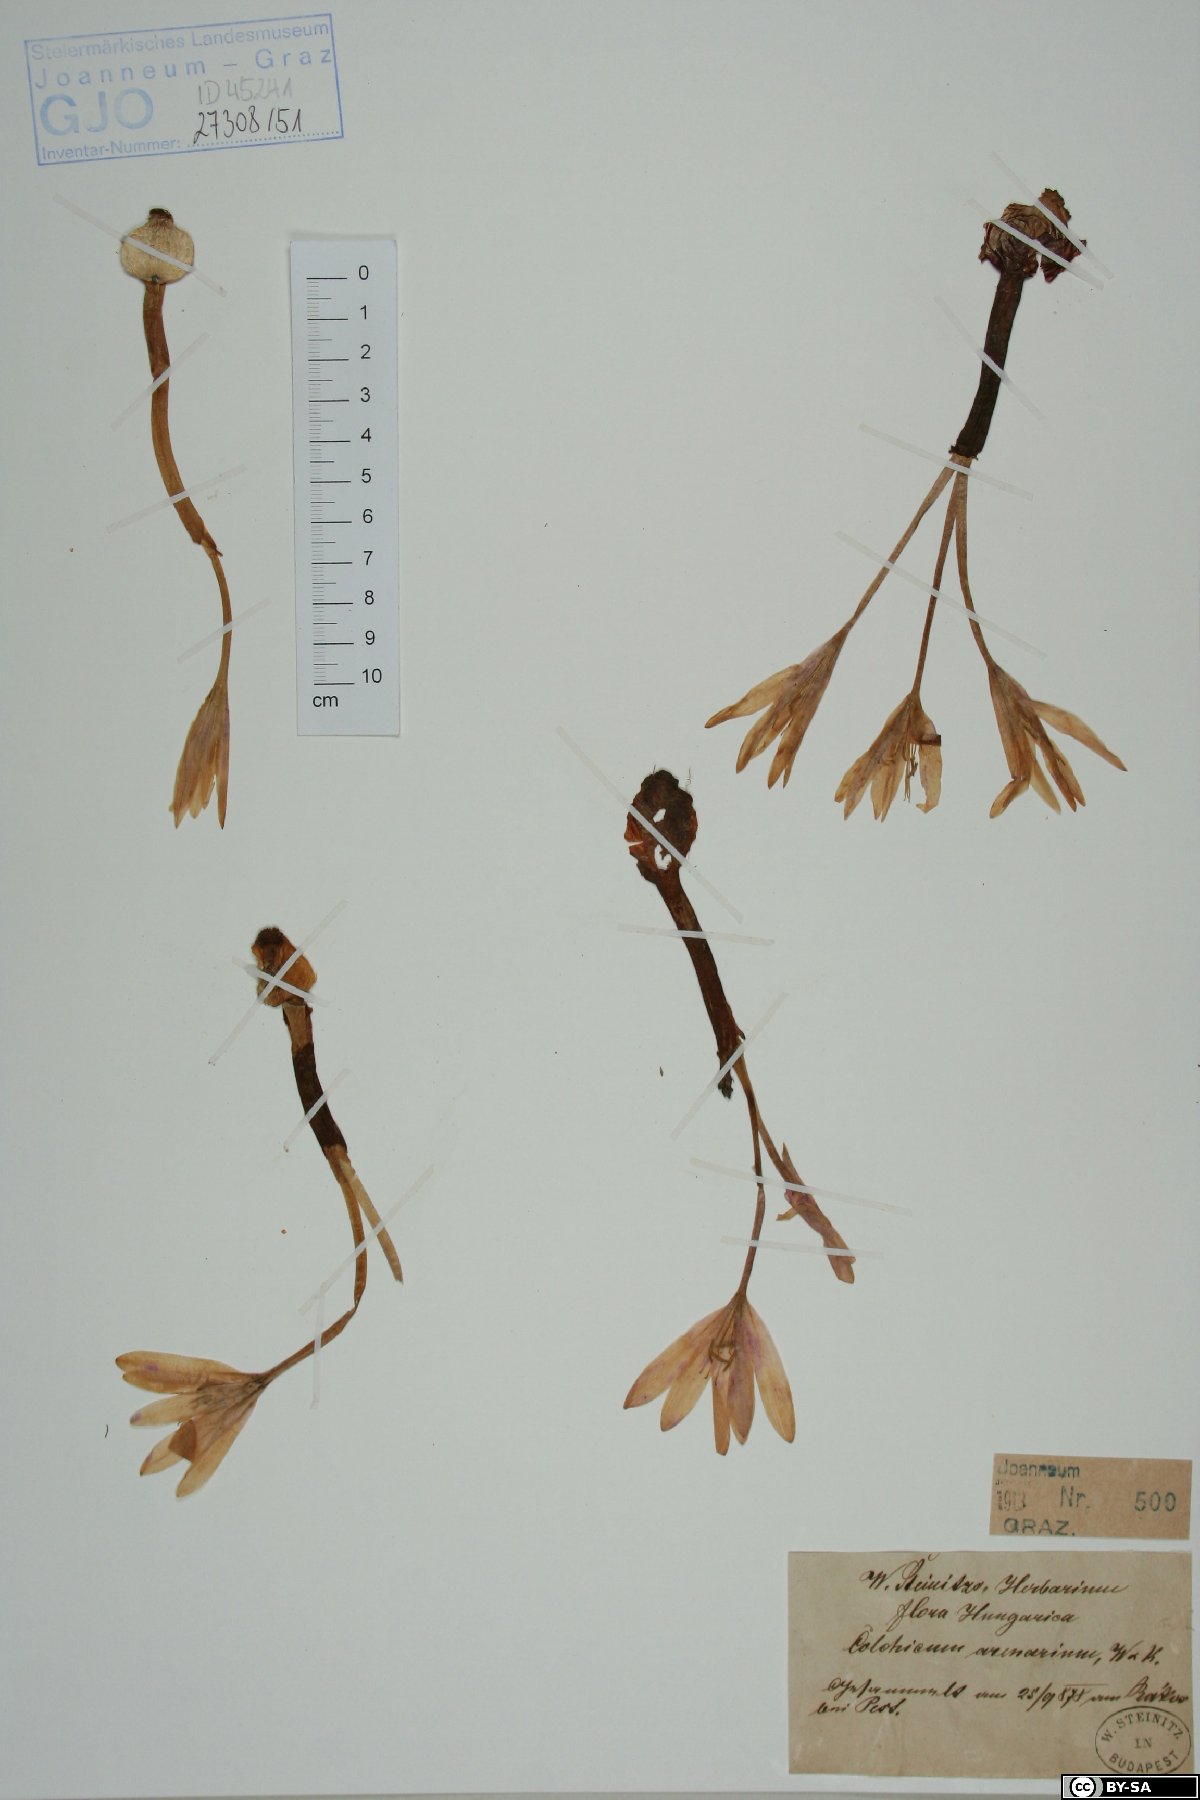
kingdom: Plantae
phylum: Tracheophyta
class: Liliopsida
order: Liliales
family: Colchicaceae
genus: Colchicum
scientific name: Colchicum arenarium
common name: Sand saffron
